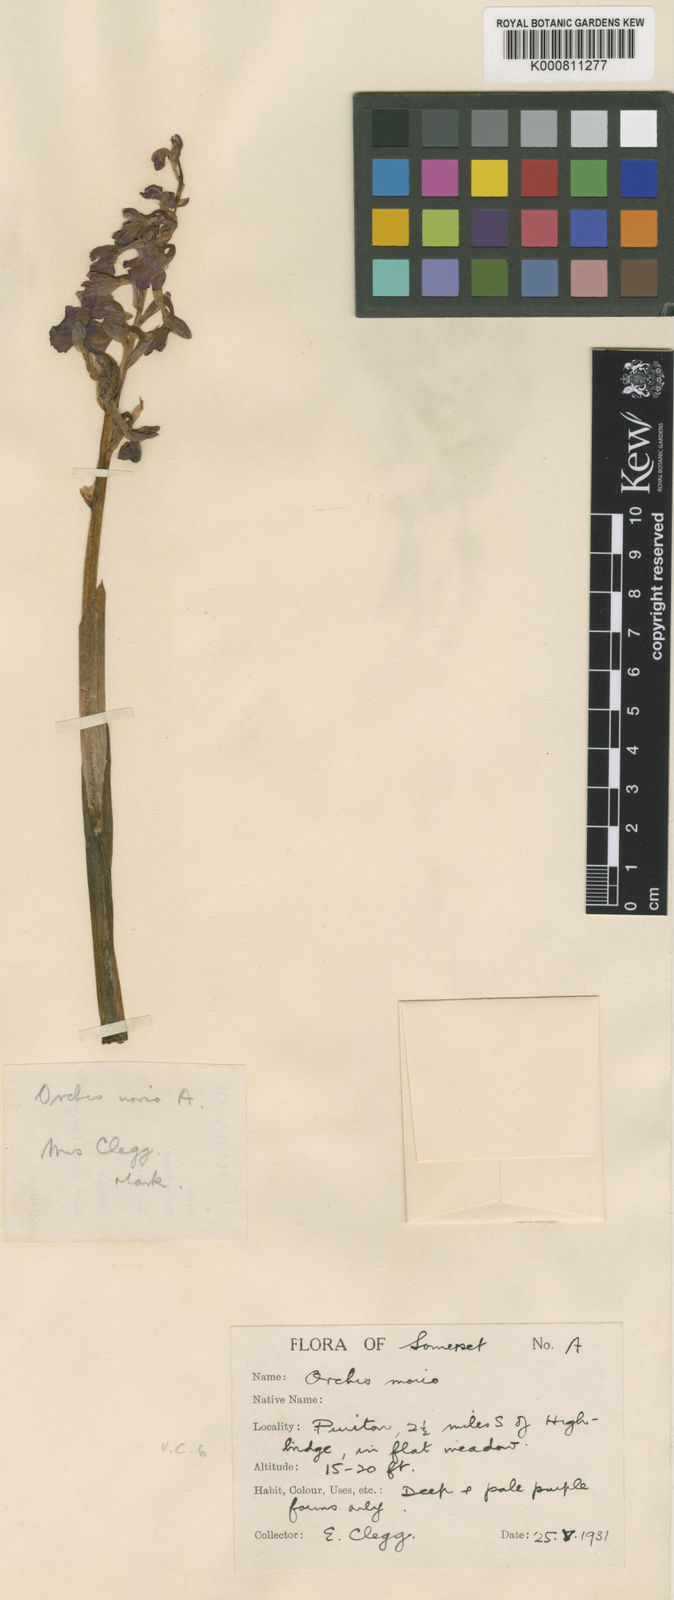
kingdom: Plantae
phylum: Tracheophyta
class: Liliopsida
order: Asparagales
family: Orchidaceae
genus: Anacamptis
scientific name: Anacamptis morio
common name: Green-winged orchid
